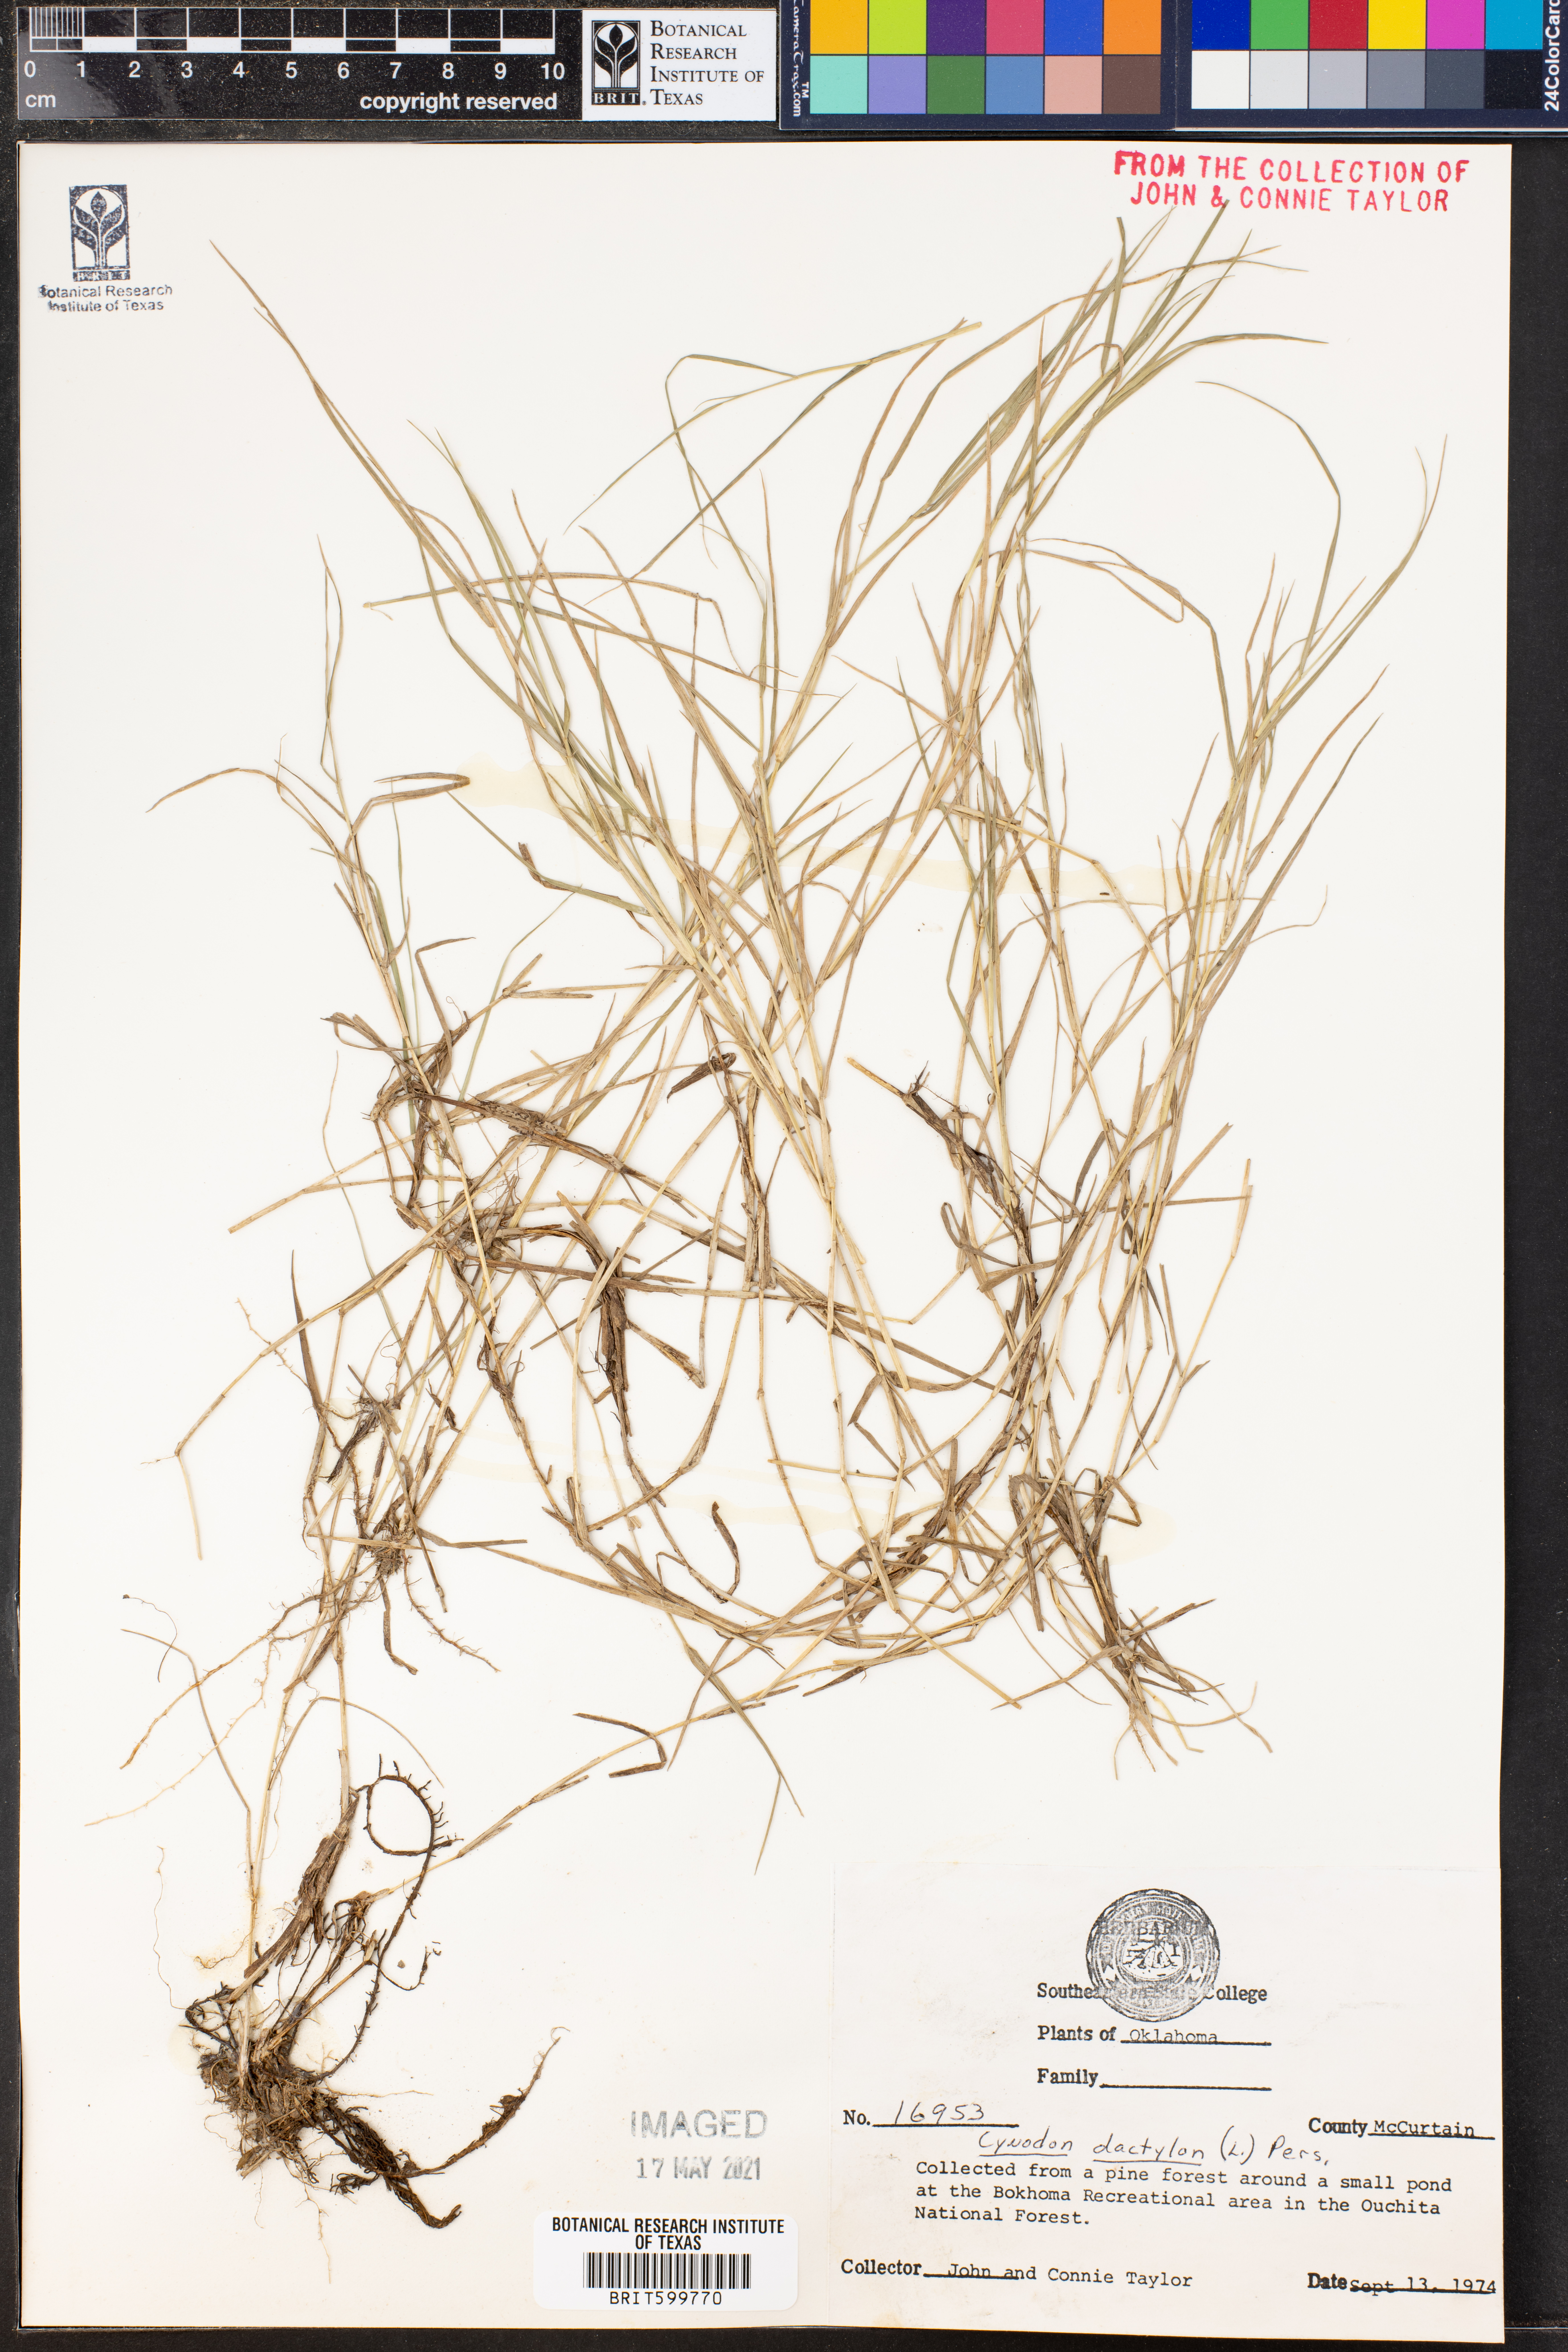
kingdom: Plantae
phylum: Tracheophyta
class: Liliopsida
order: Poales
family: Poaceae
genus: Cynodon
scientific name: Cynodon dactylon
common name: Bermuda grass
